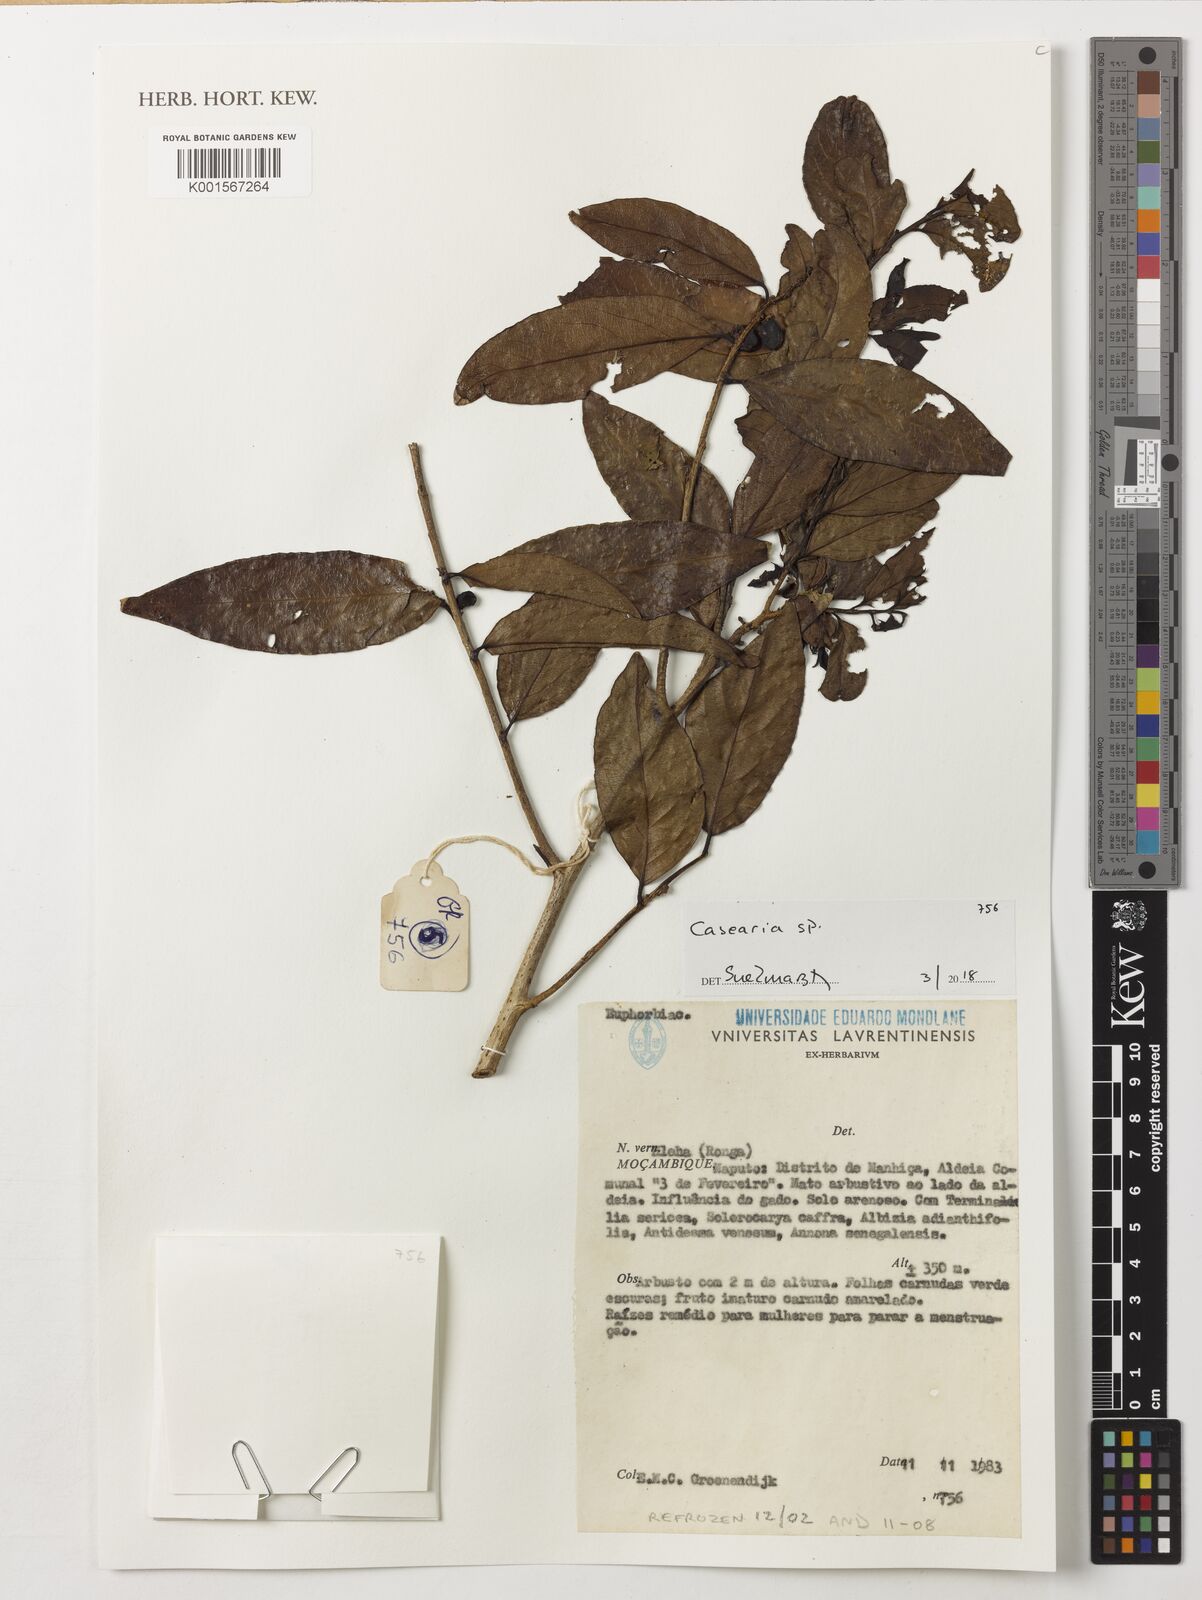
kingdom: Plantae
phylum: Tracheophyta
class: Magnoliopsida
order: Malpighiales
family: Salicaceae
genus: Casearia
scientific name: Casearia
